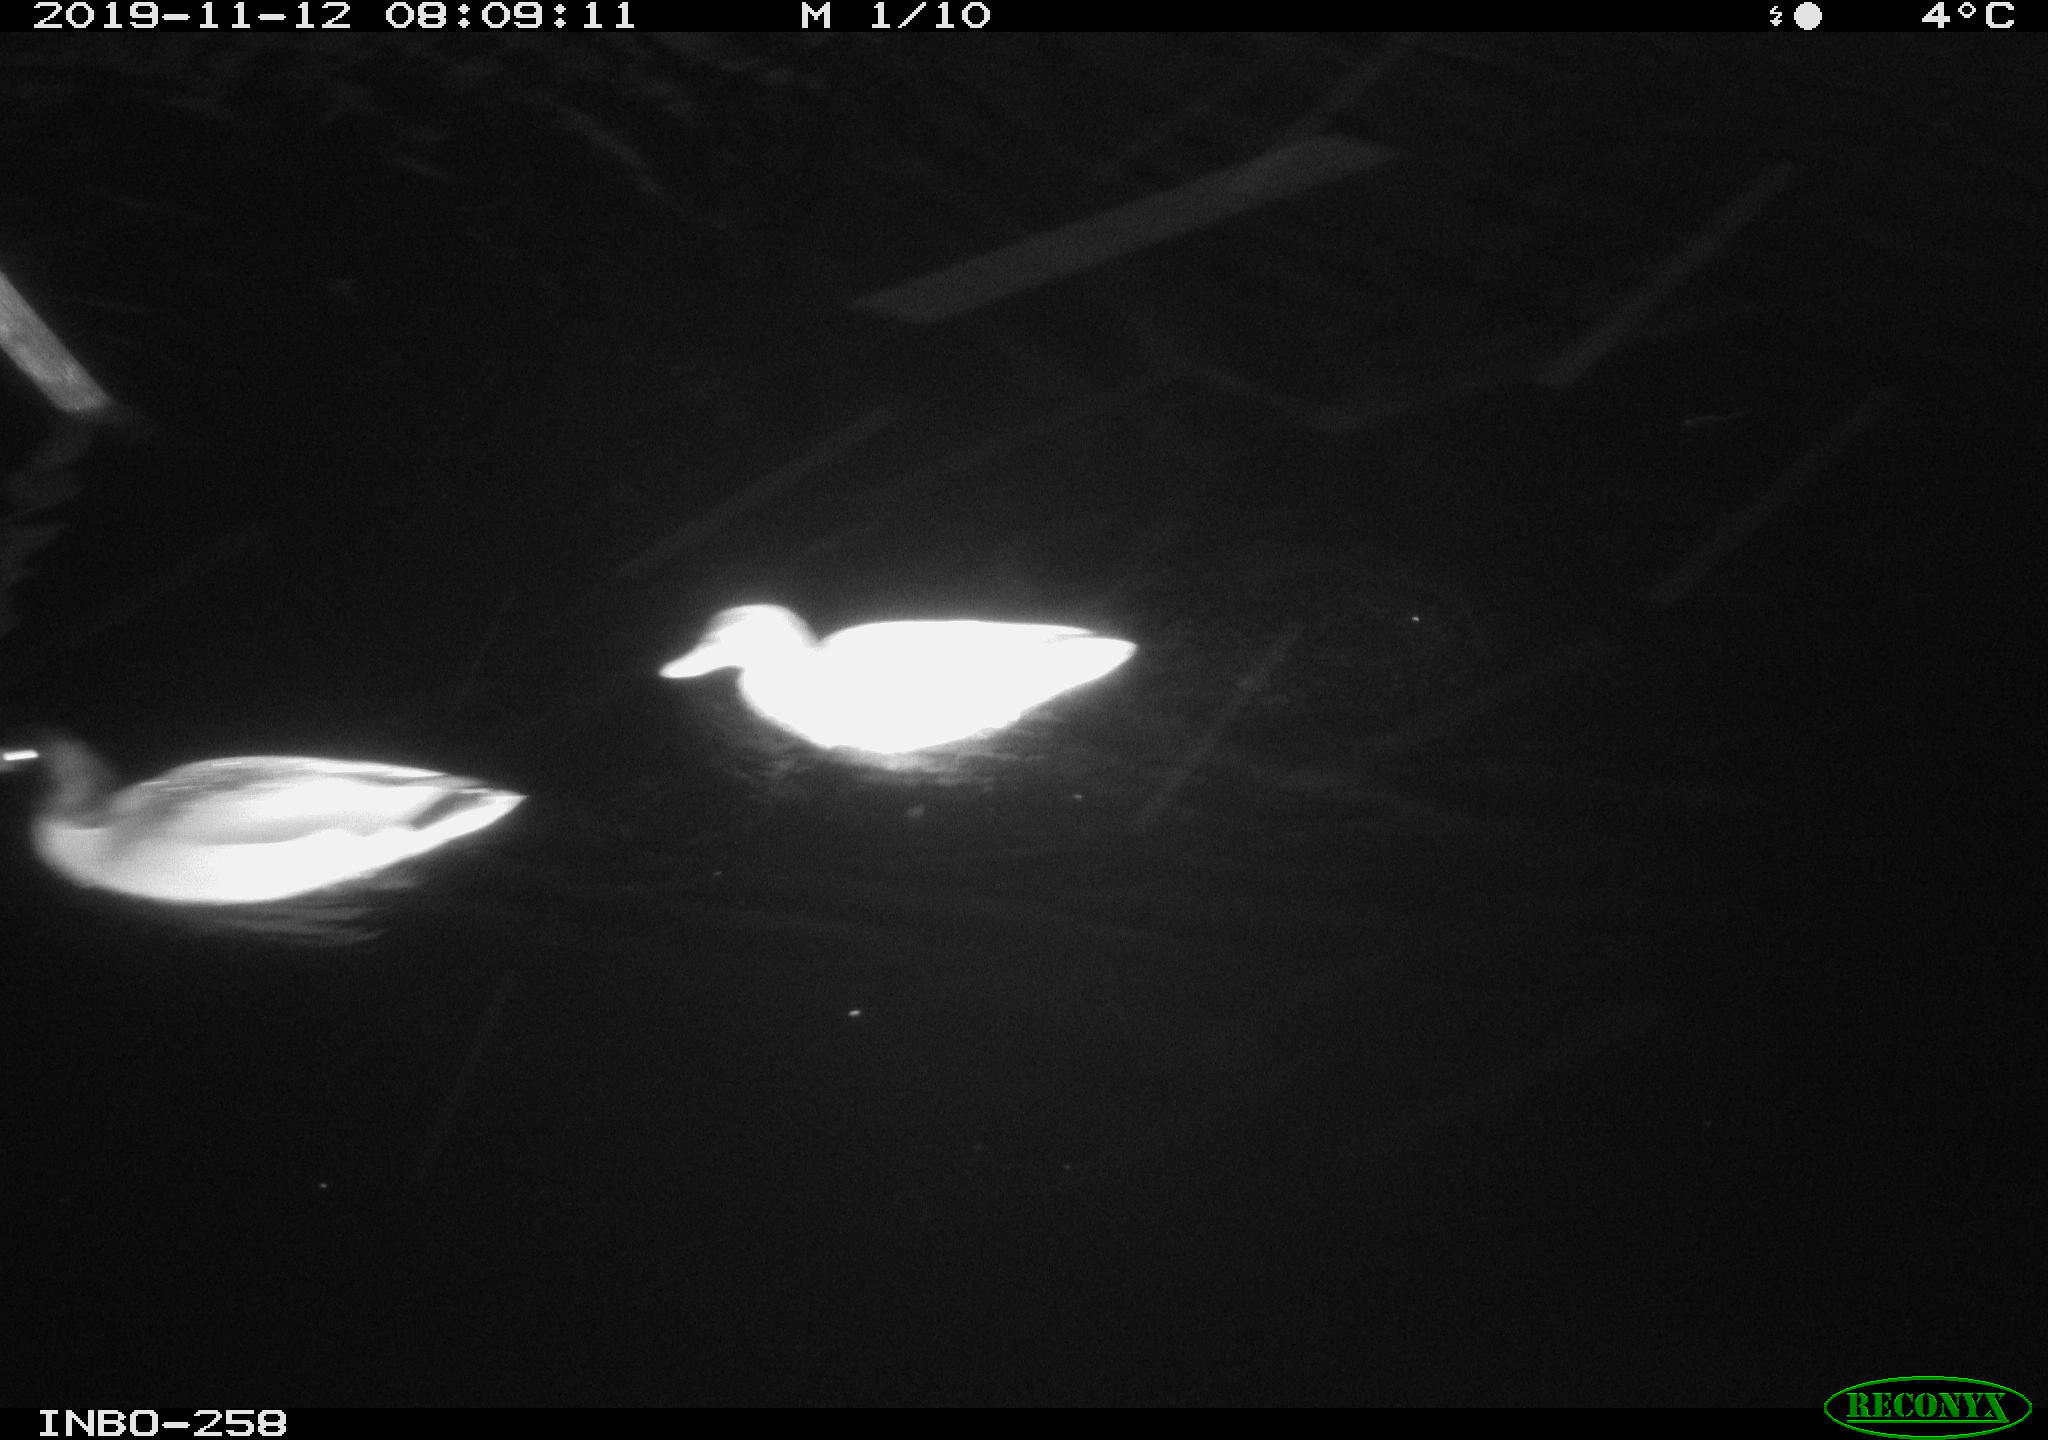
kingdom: Animalia
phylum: Chordata
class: Aves
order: Anseriformes
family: Anatidae
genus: Anas
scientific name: Anas platyrhynchos
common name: Mallard
